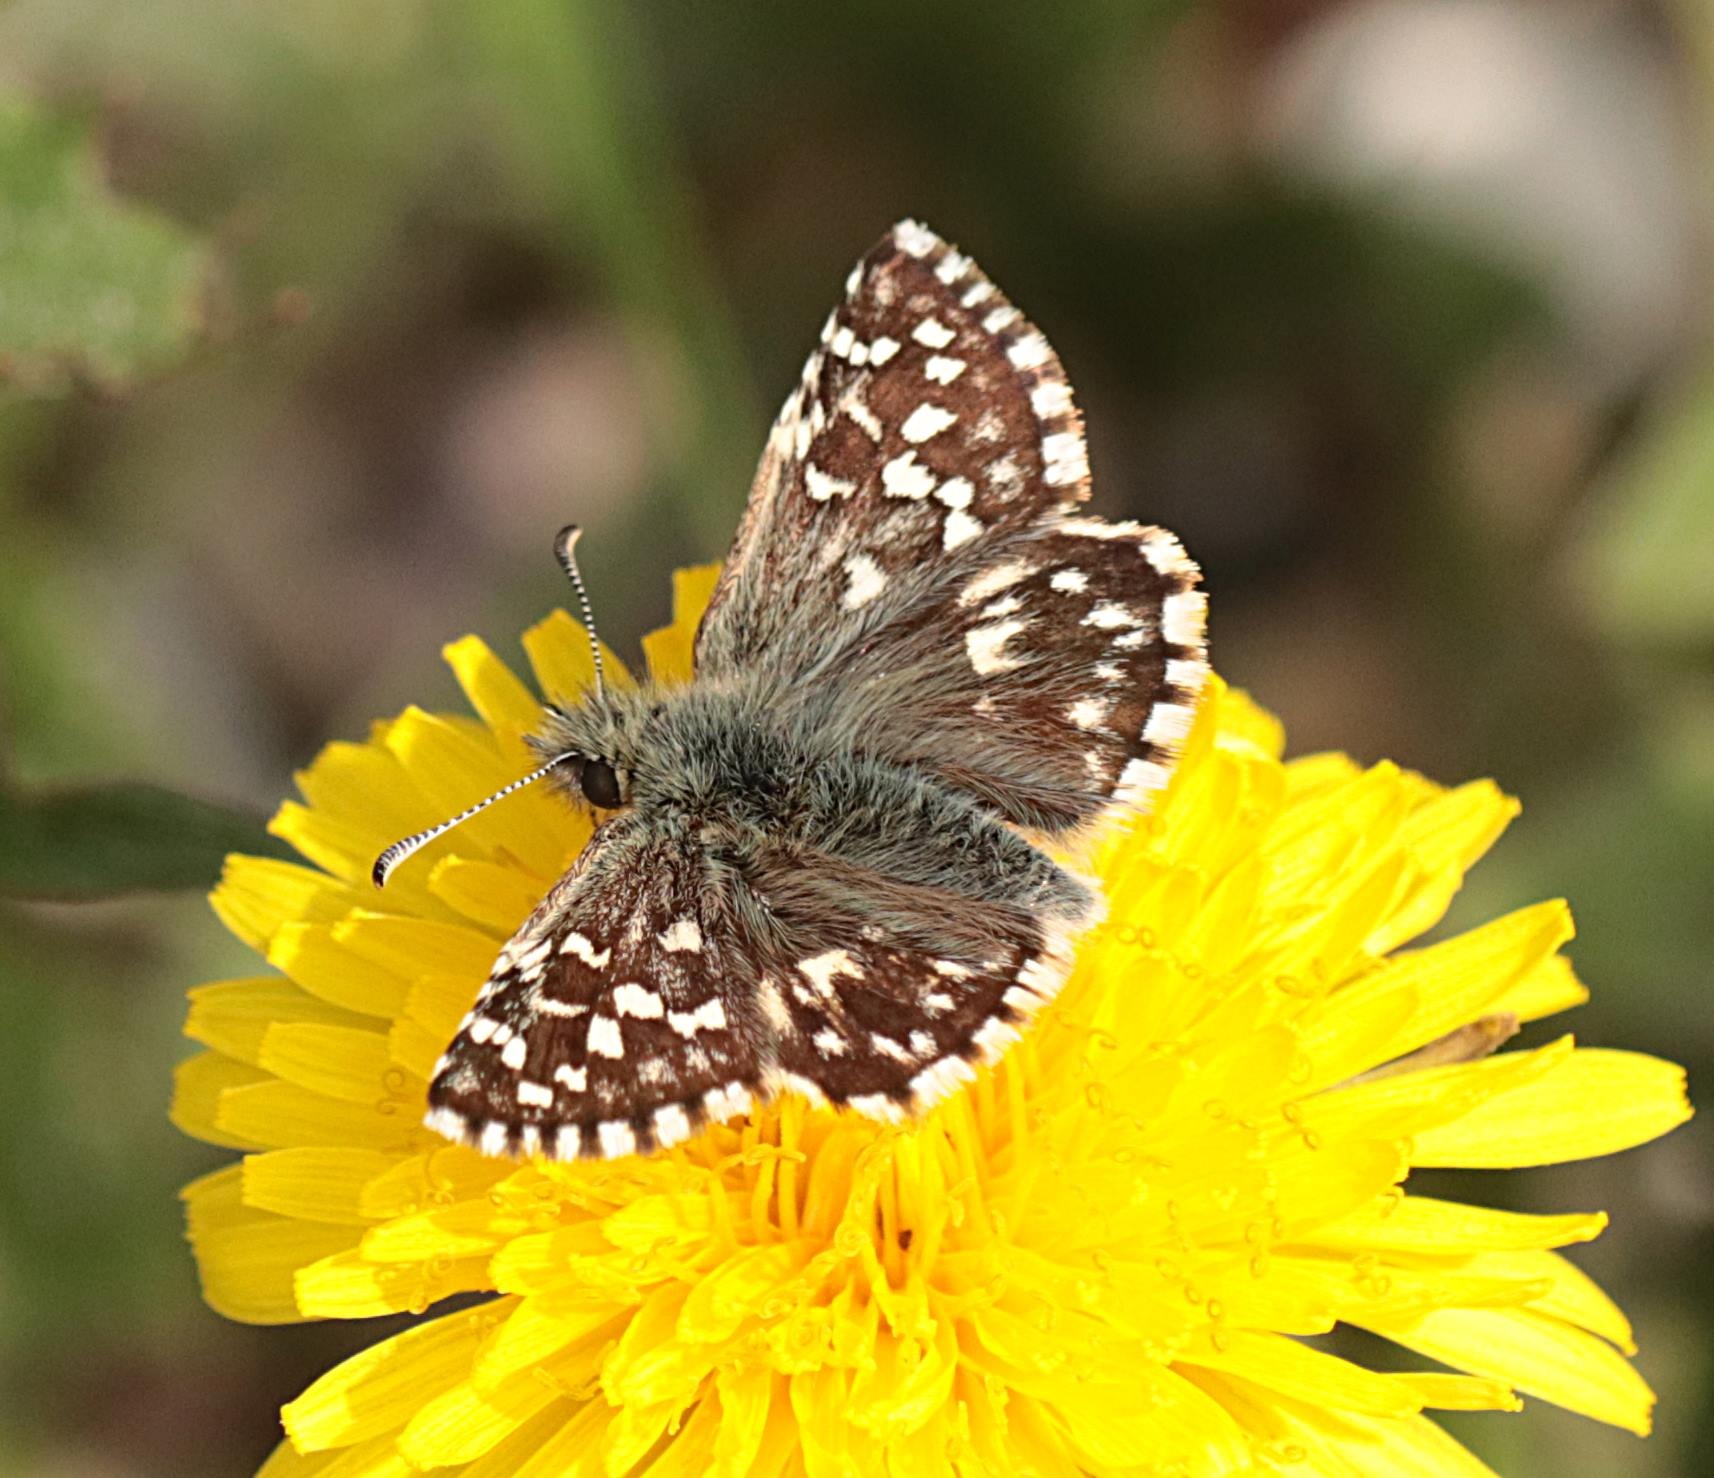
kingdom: Animalia
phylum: Arthropoda
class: Insecta
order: Lepidoptera
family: Hesperiidae
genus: Pyrgus
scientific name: Pyrgus malvae
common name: Spættet bredpande
